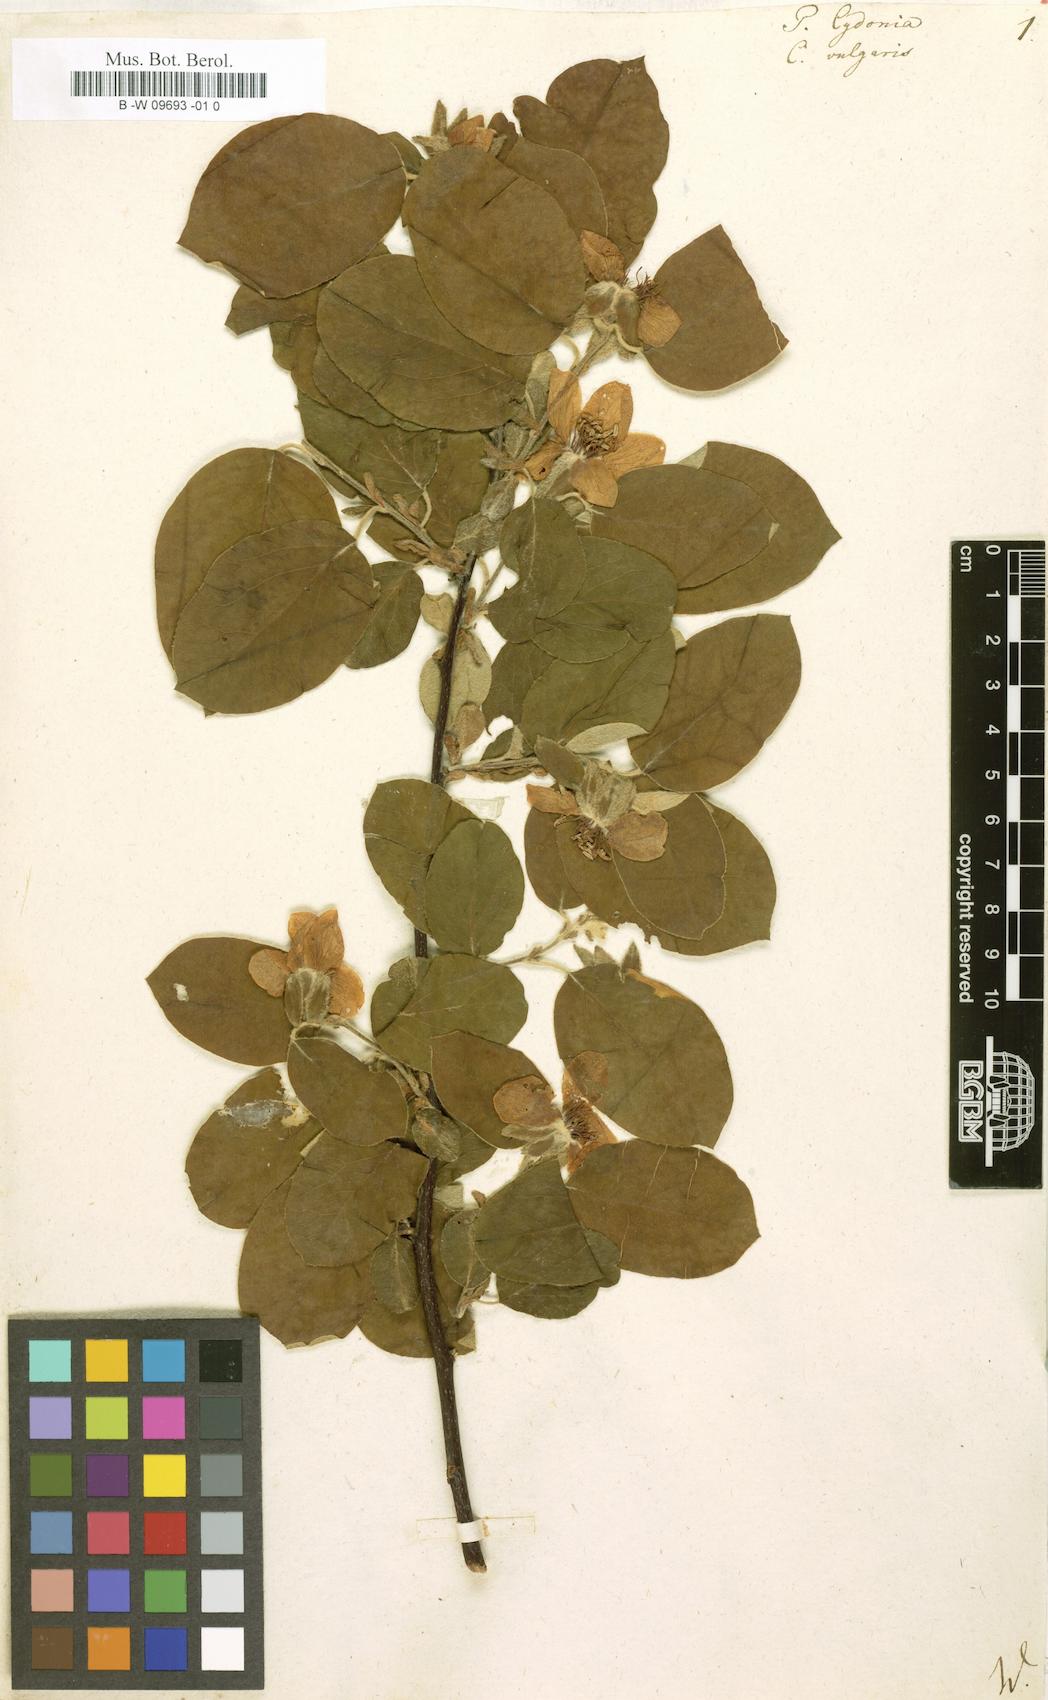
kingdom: Plantae
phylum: Tracheophyta
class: Magnoliopsida
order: Rosales
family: Rosaceae
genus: Cydonia
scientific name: Cydonia oblonga
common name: Quince
